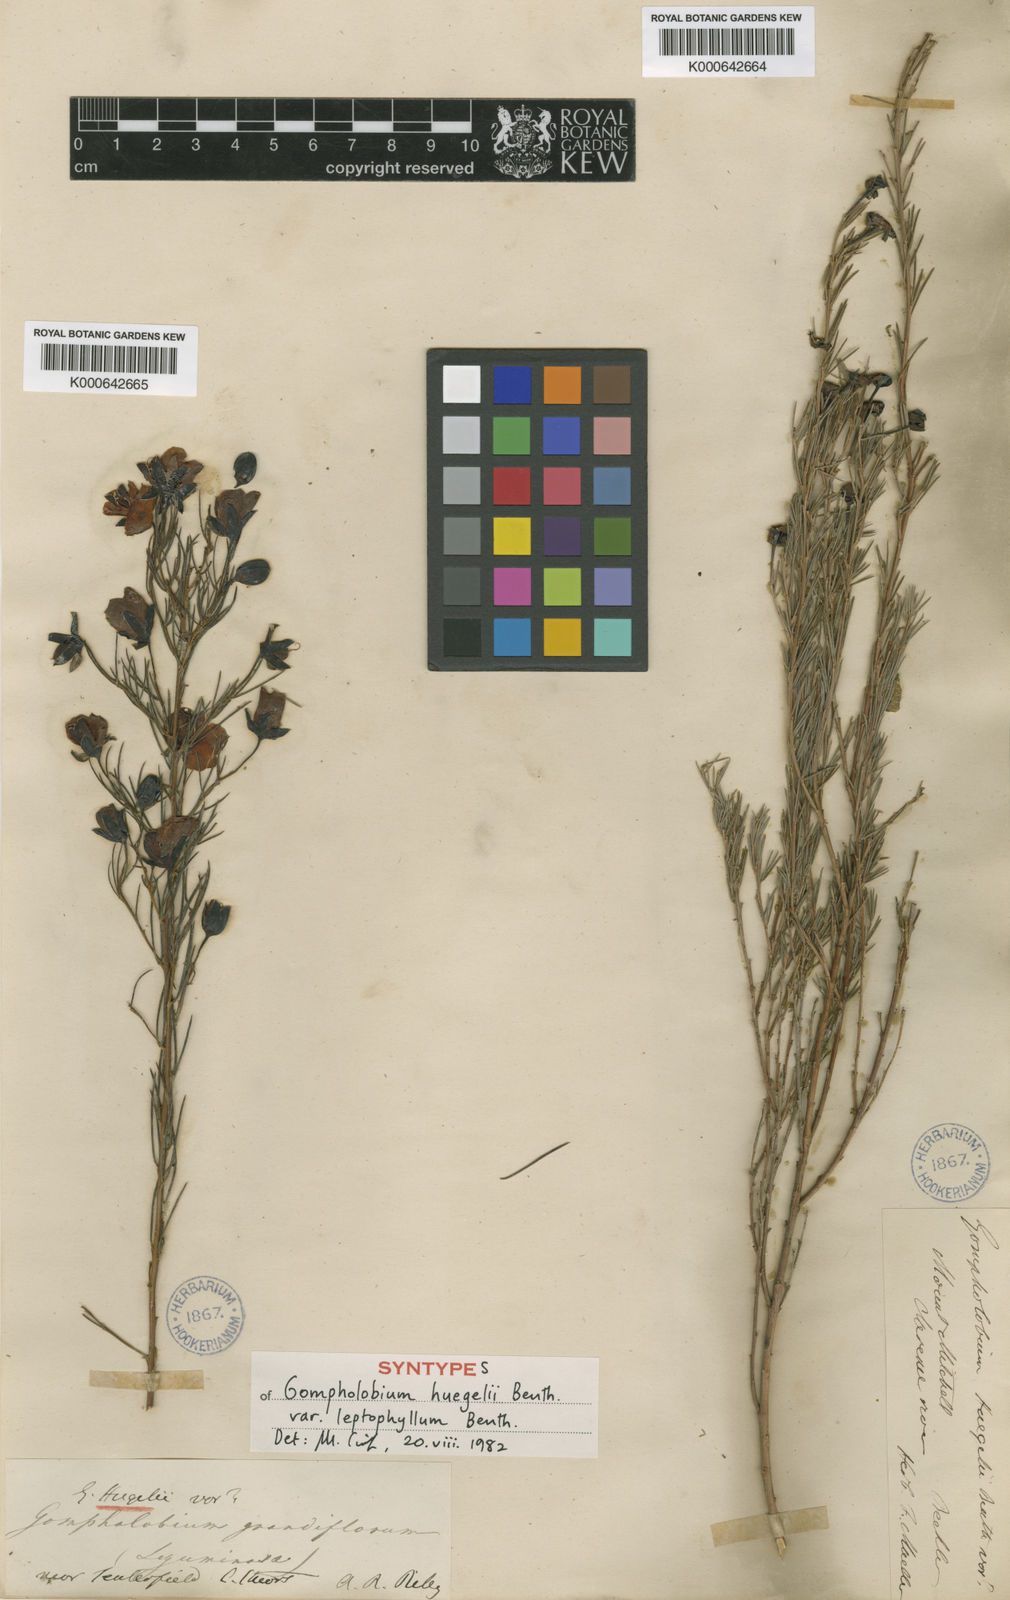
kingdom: Plantae
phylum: Tracheophyta
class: Magnoliopsida
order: Fabales
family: Fabaceae
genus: Gompholobium
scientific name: Gompholobium huegelii
